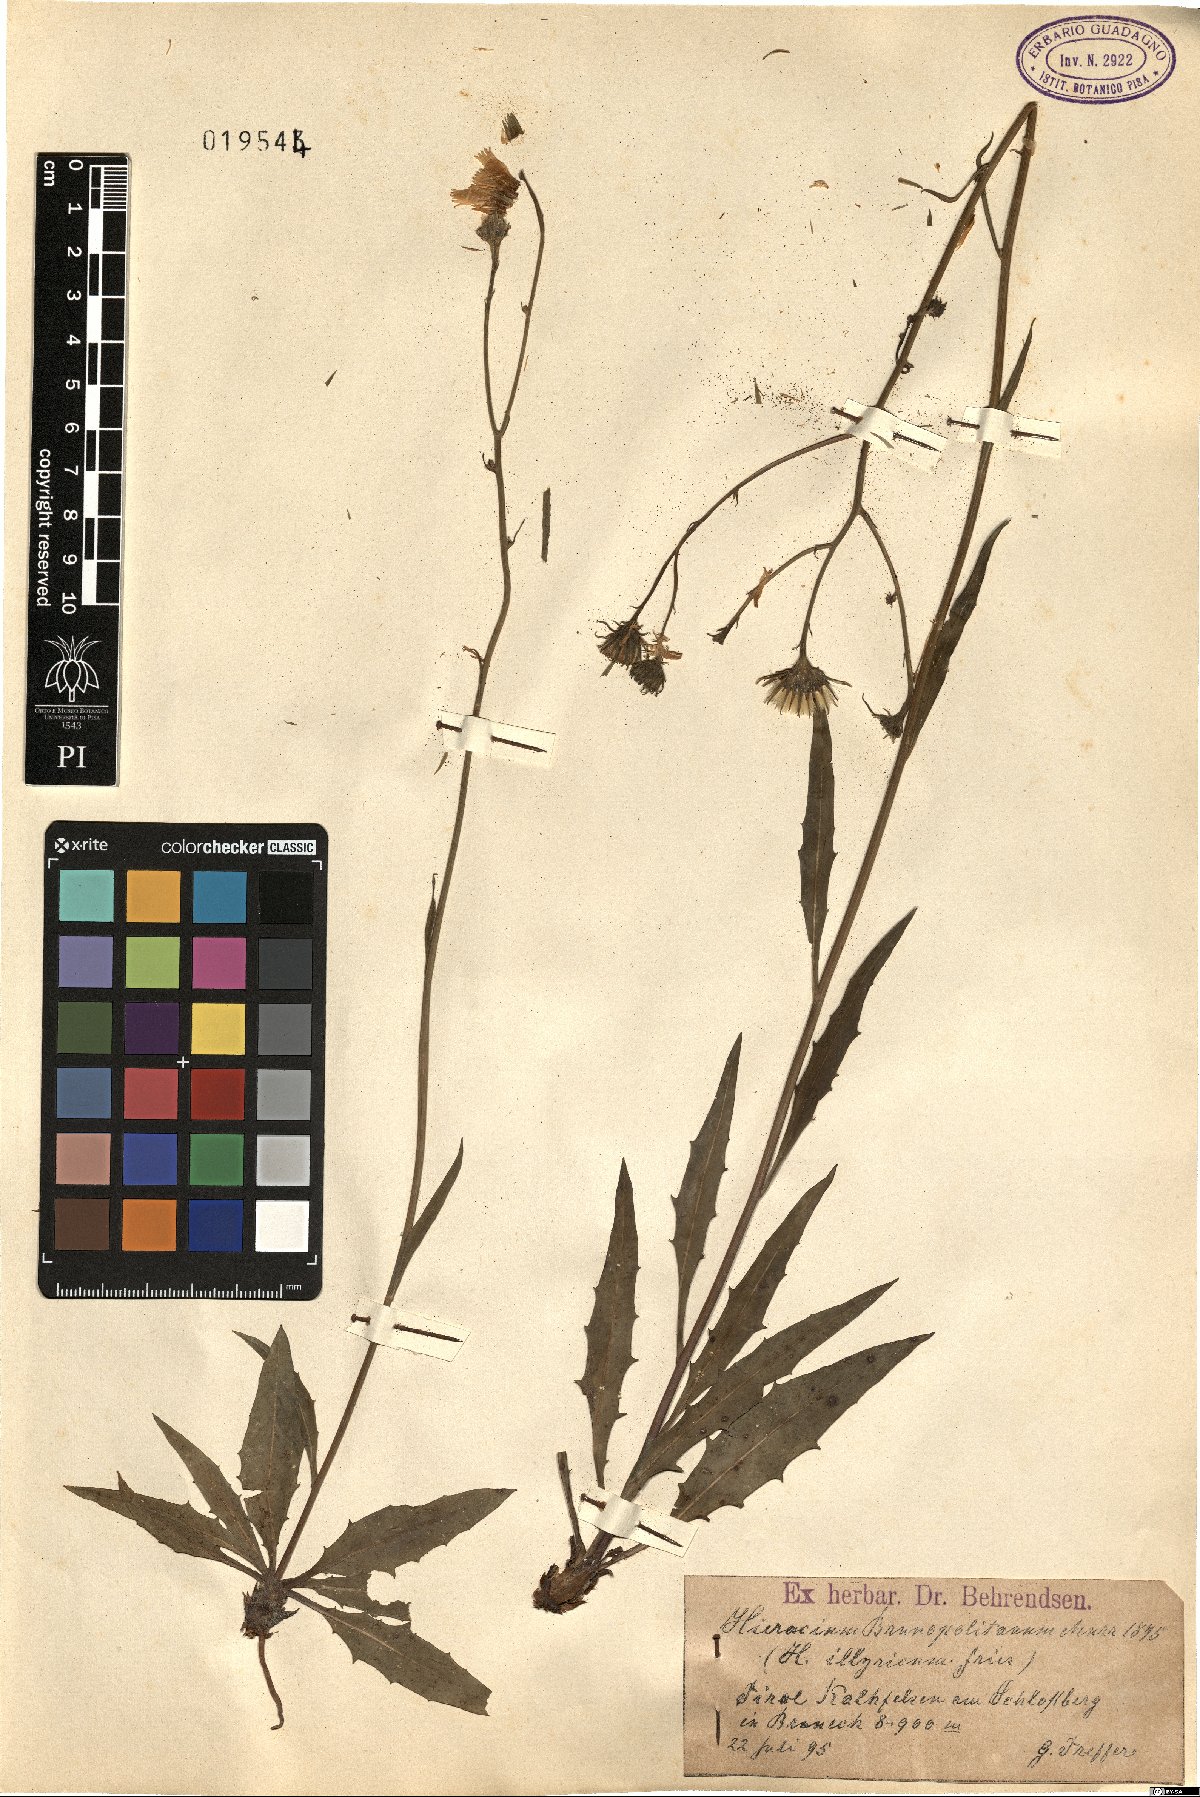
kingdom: Plantae
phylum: Tracheophyta
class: Magnoliopsida
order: Asterales
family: Asteraceae
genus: Hieracium
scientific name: Hieracium brunopolitanum
